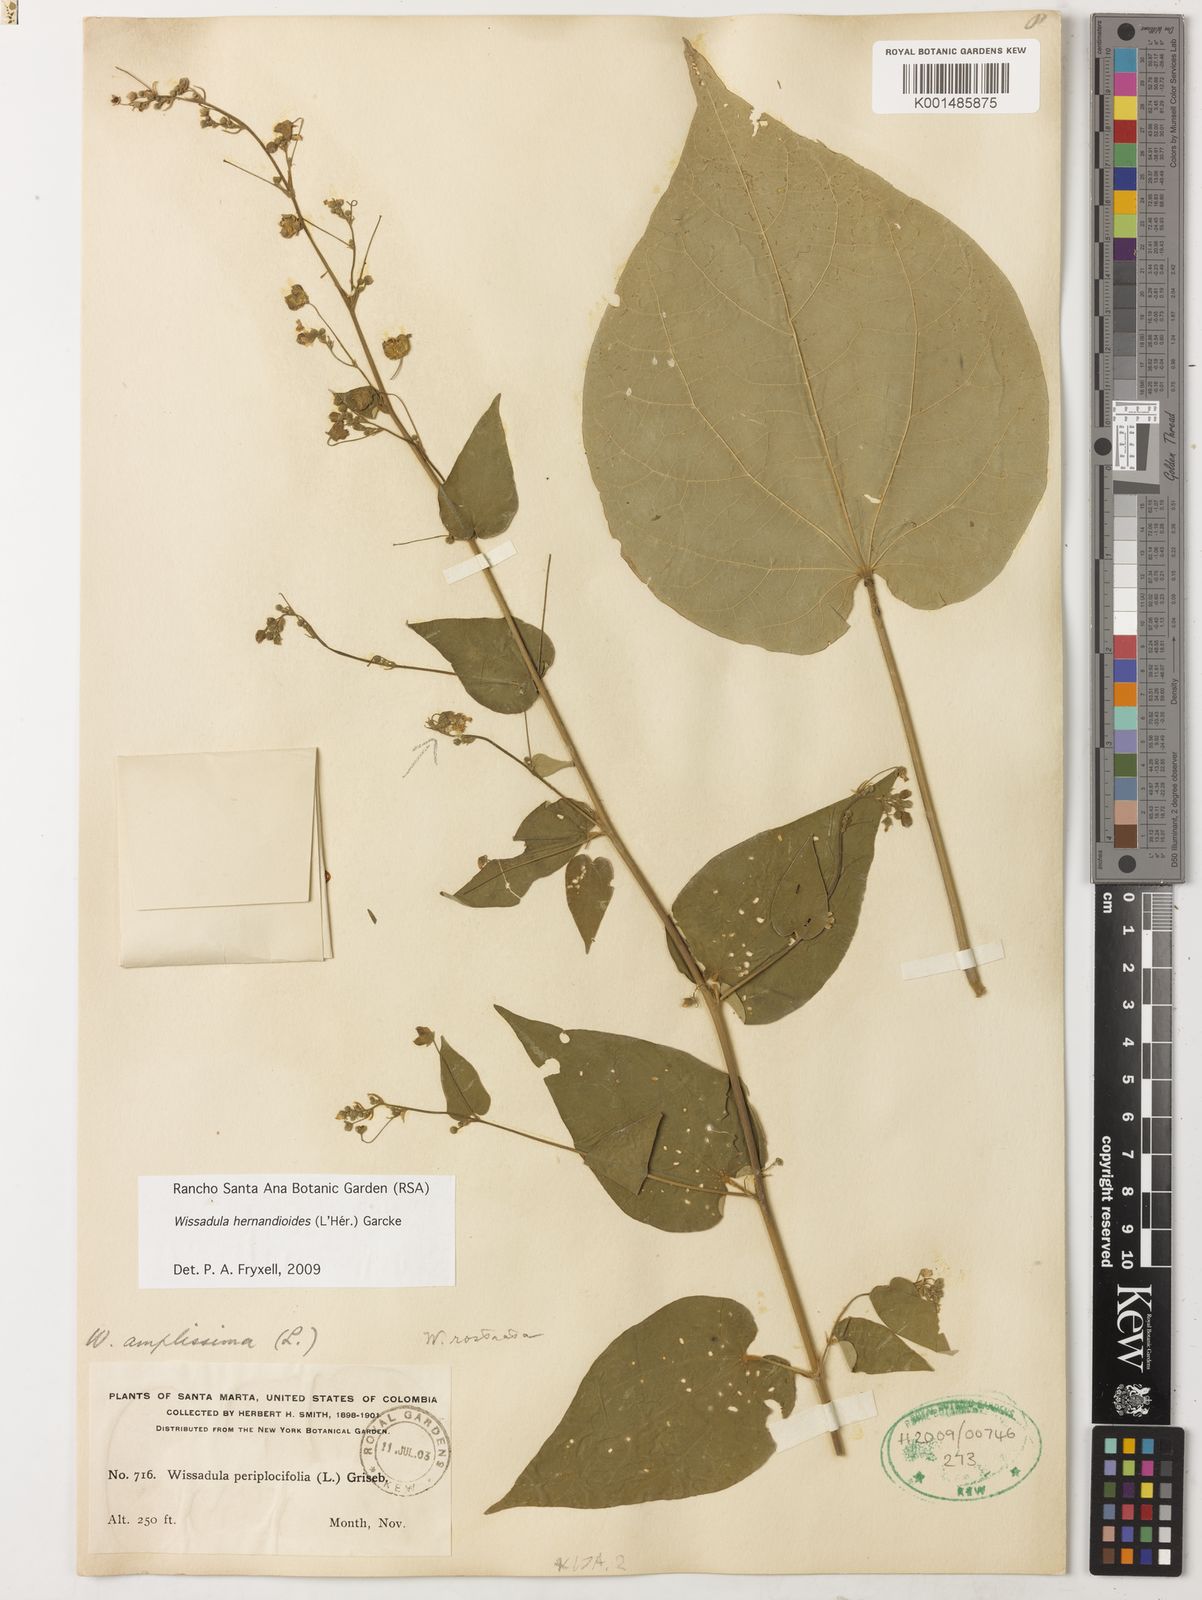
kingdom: Plantae
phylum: Tracheophyta
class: Magnoliopsida
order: Malvales
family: Malvaceae
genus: Wissadula
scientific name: Wissadula hernandioides
